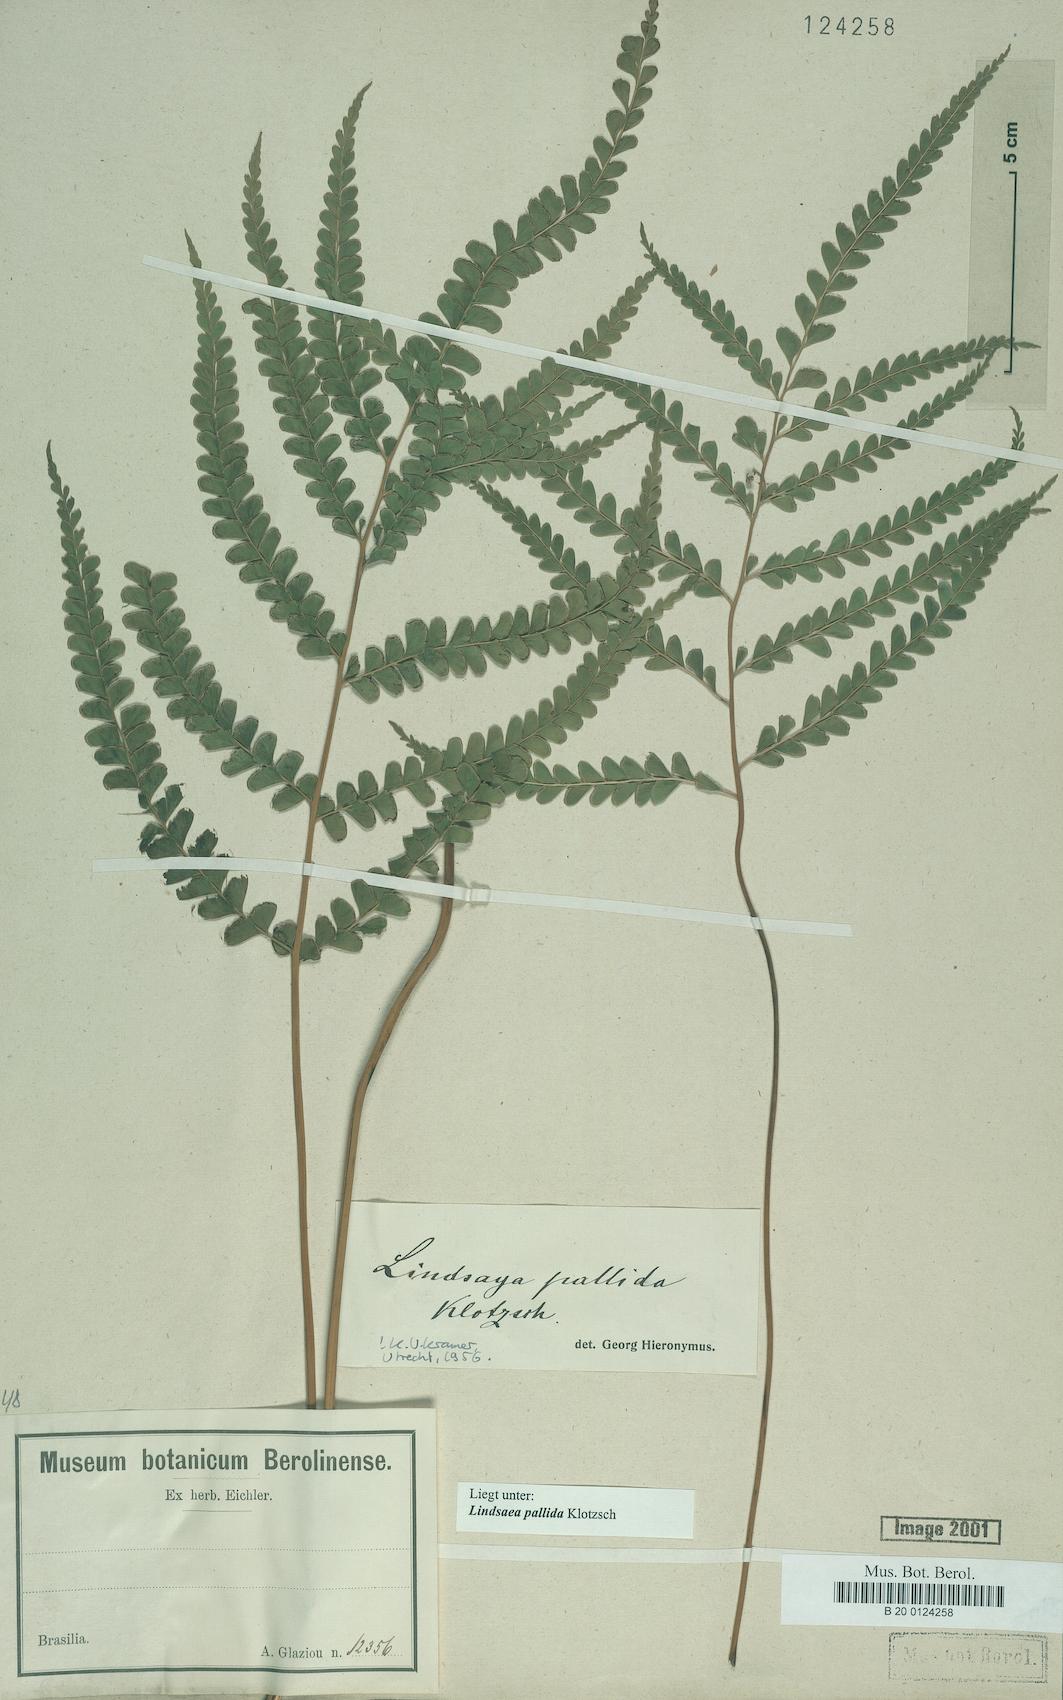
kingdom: Plantae
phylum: Tracheophyta
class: Polypodiopsida
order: Polypodiales
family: Lindsaeaceae
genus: Lindsaea
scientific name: Lindsaea pallida
